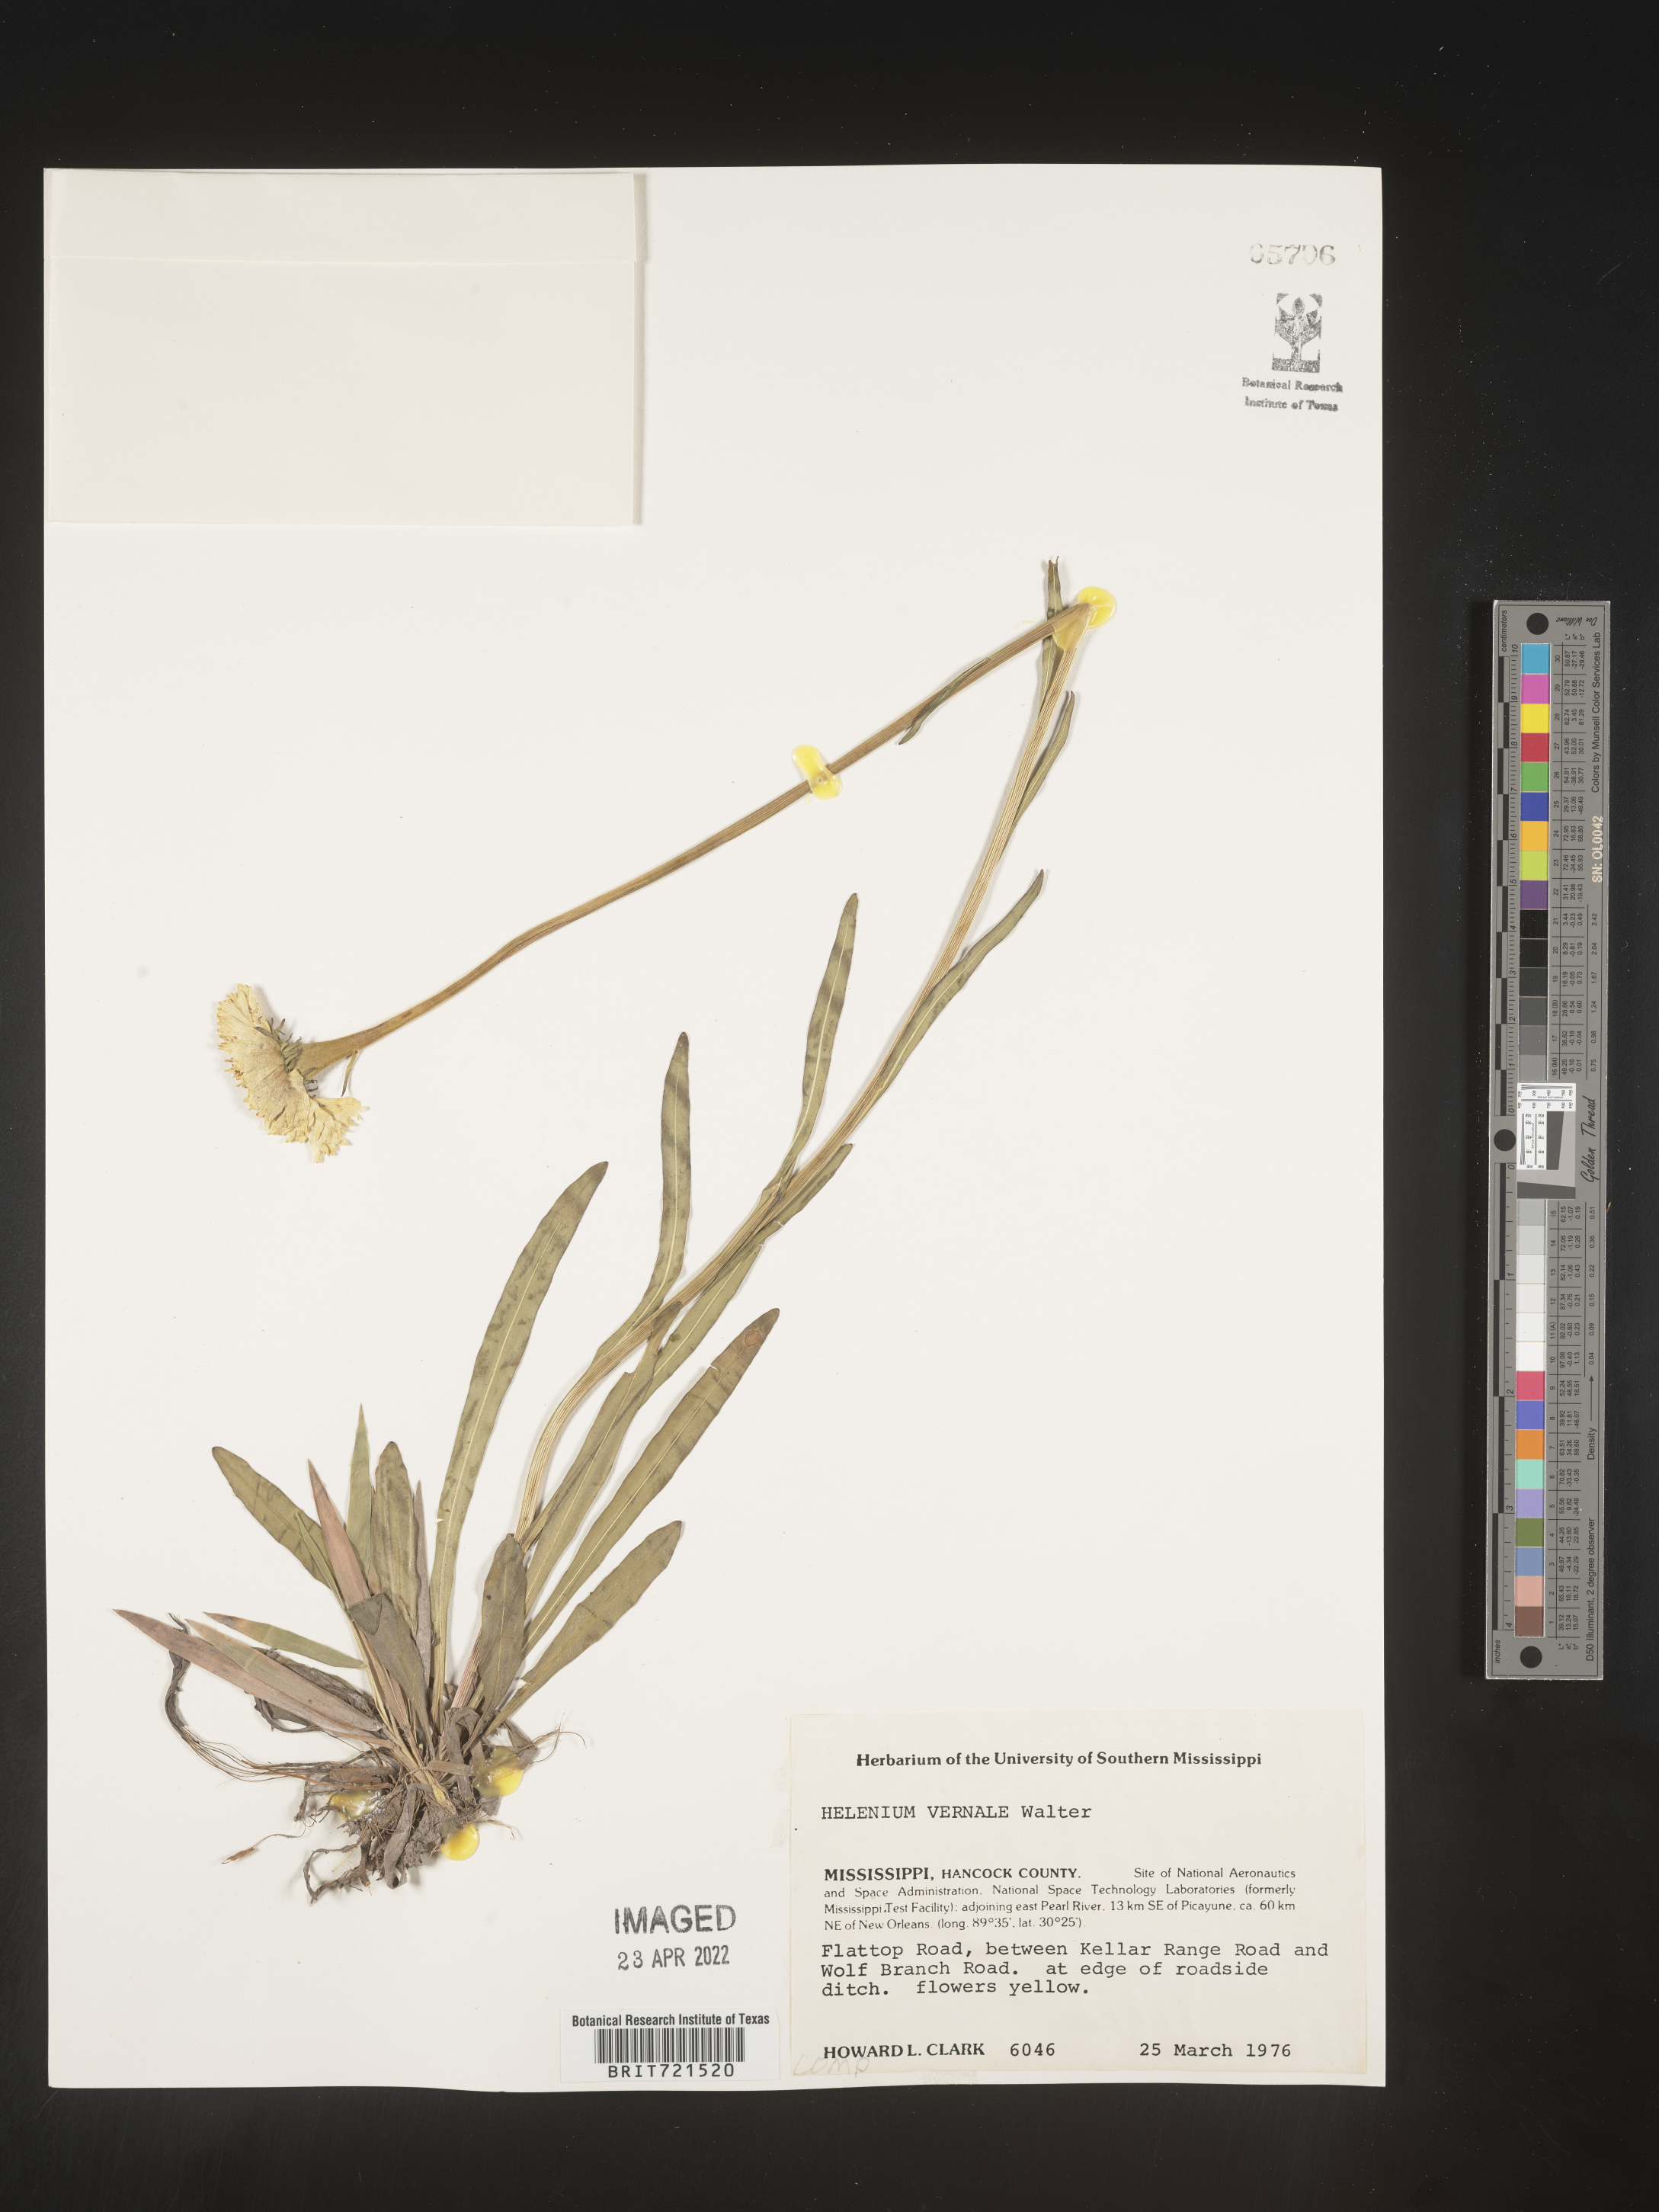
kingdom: Plantae
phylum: Tracheophyta
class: Magnoliopsida
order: Asterales
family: Asteraceae
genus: Helenium
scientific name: Helenium vernale
